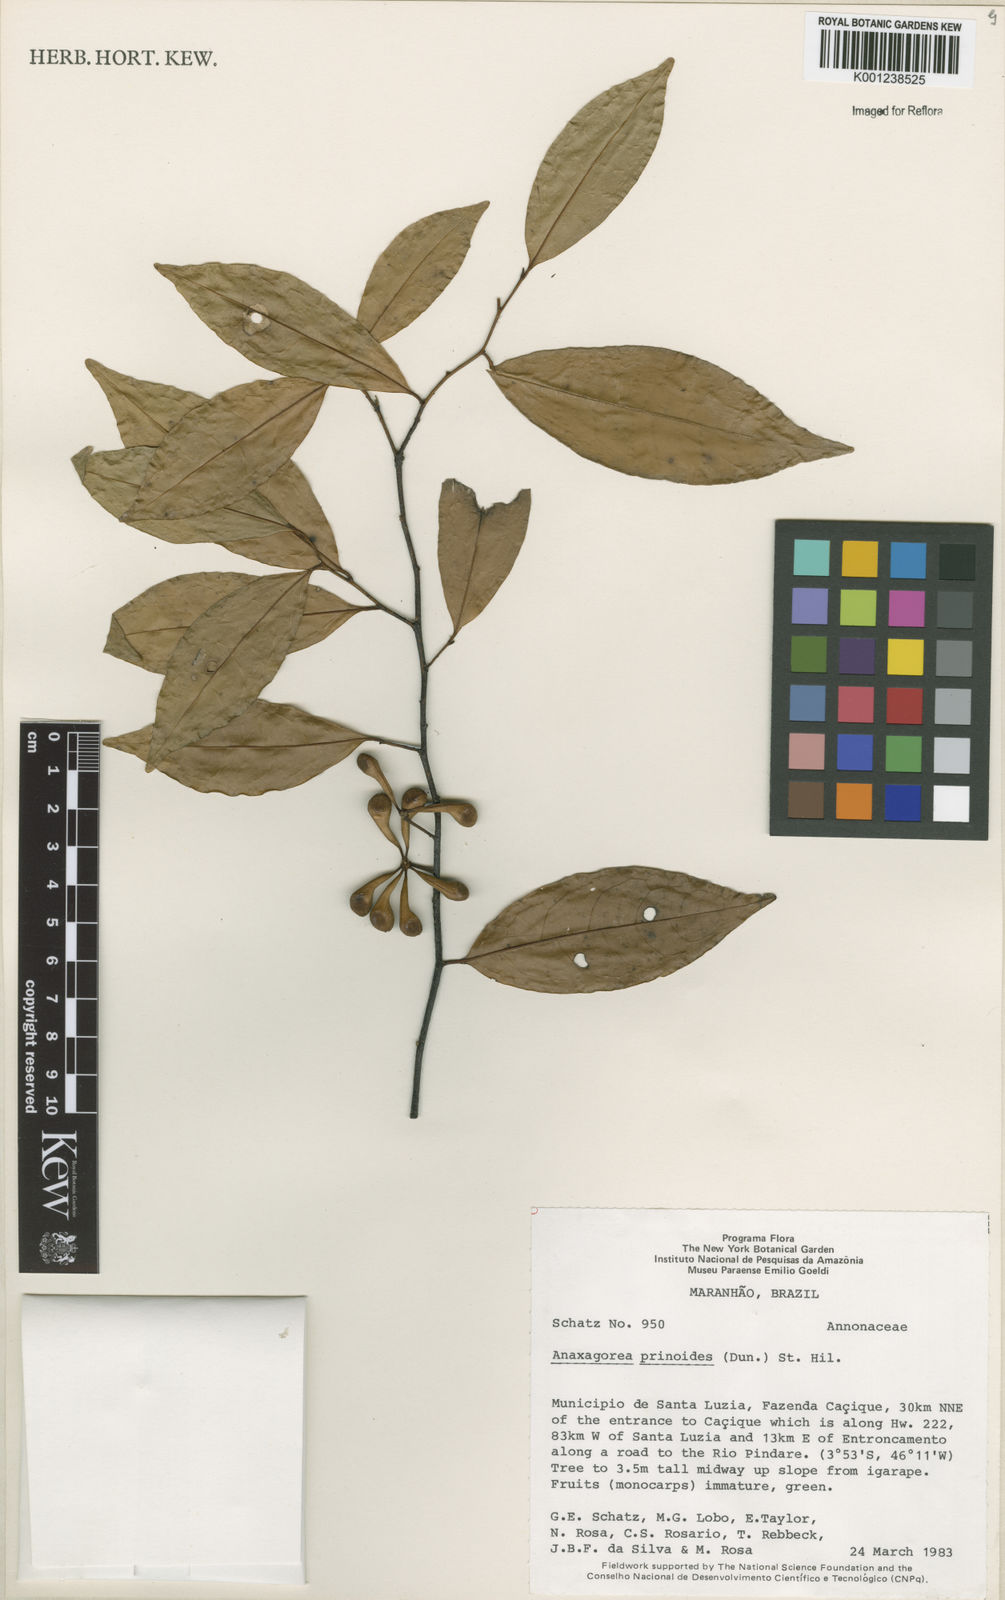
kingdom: Plantae
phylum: Tracheophyta
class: Magnoliopsida
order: Magnoliales
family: Annonaceae
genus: Anaxagorea
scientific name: Anaxagorea prinoides
